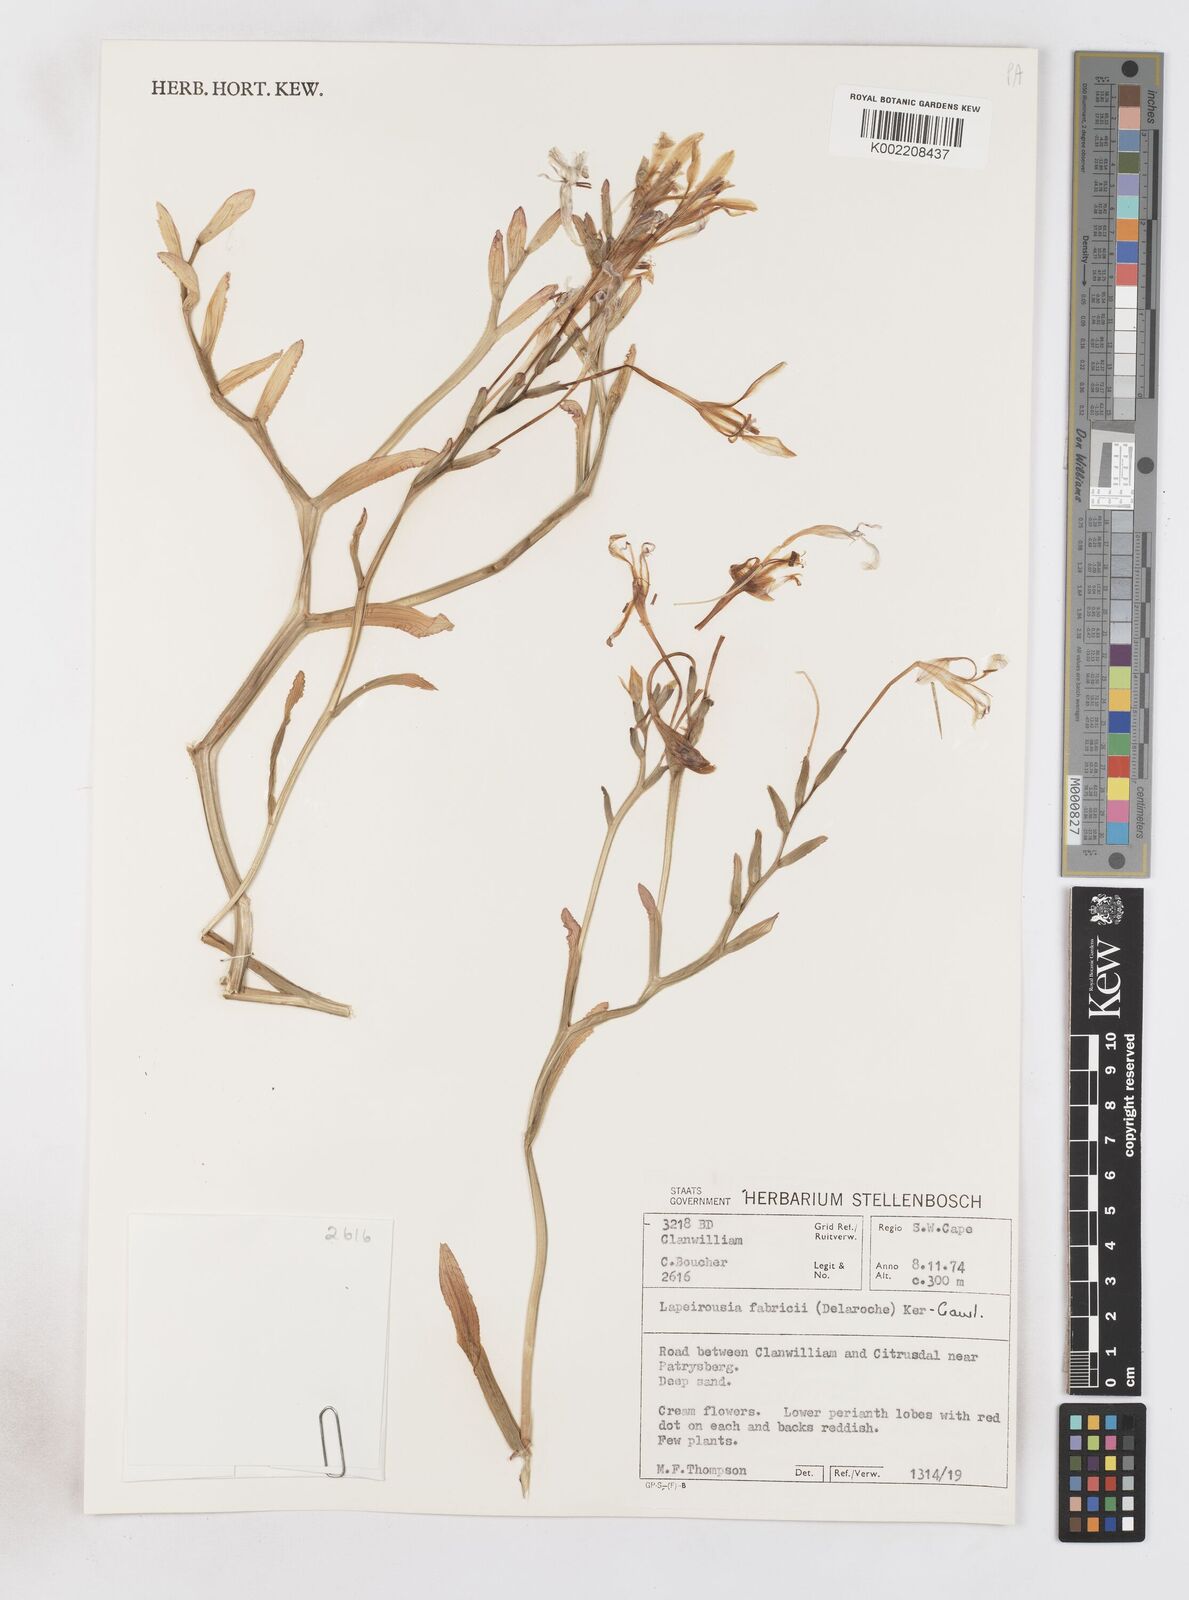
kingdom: Plantae
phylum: Tracheophyta
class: Liliopsida
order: Asparagales
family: Iridaceae
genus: Lapeirousia
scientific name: Lapeirousia fabricii
